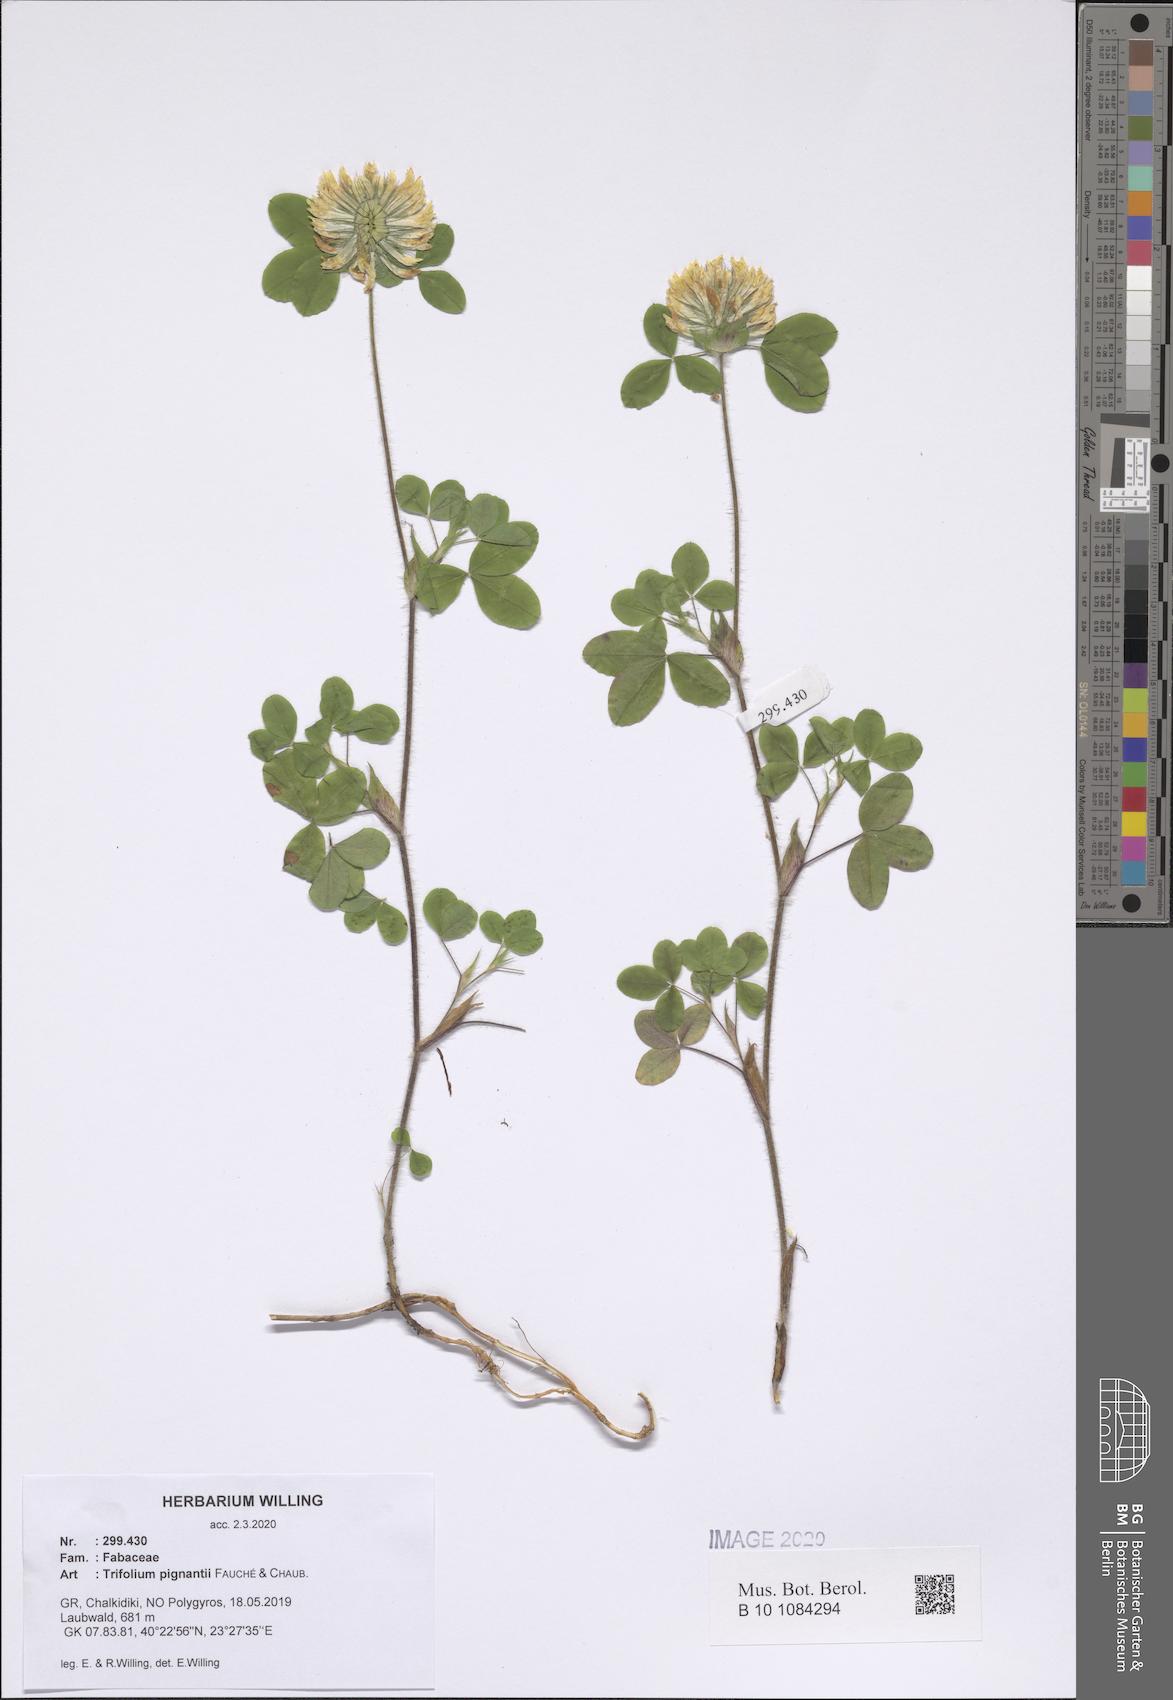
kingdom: Plantae
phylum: Tracheophyta
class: Magnoliopsida
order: Fabales
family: Fabaceae
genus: Trifolium
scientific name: Trifolium pignantii
